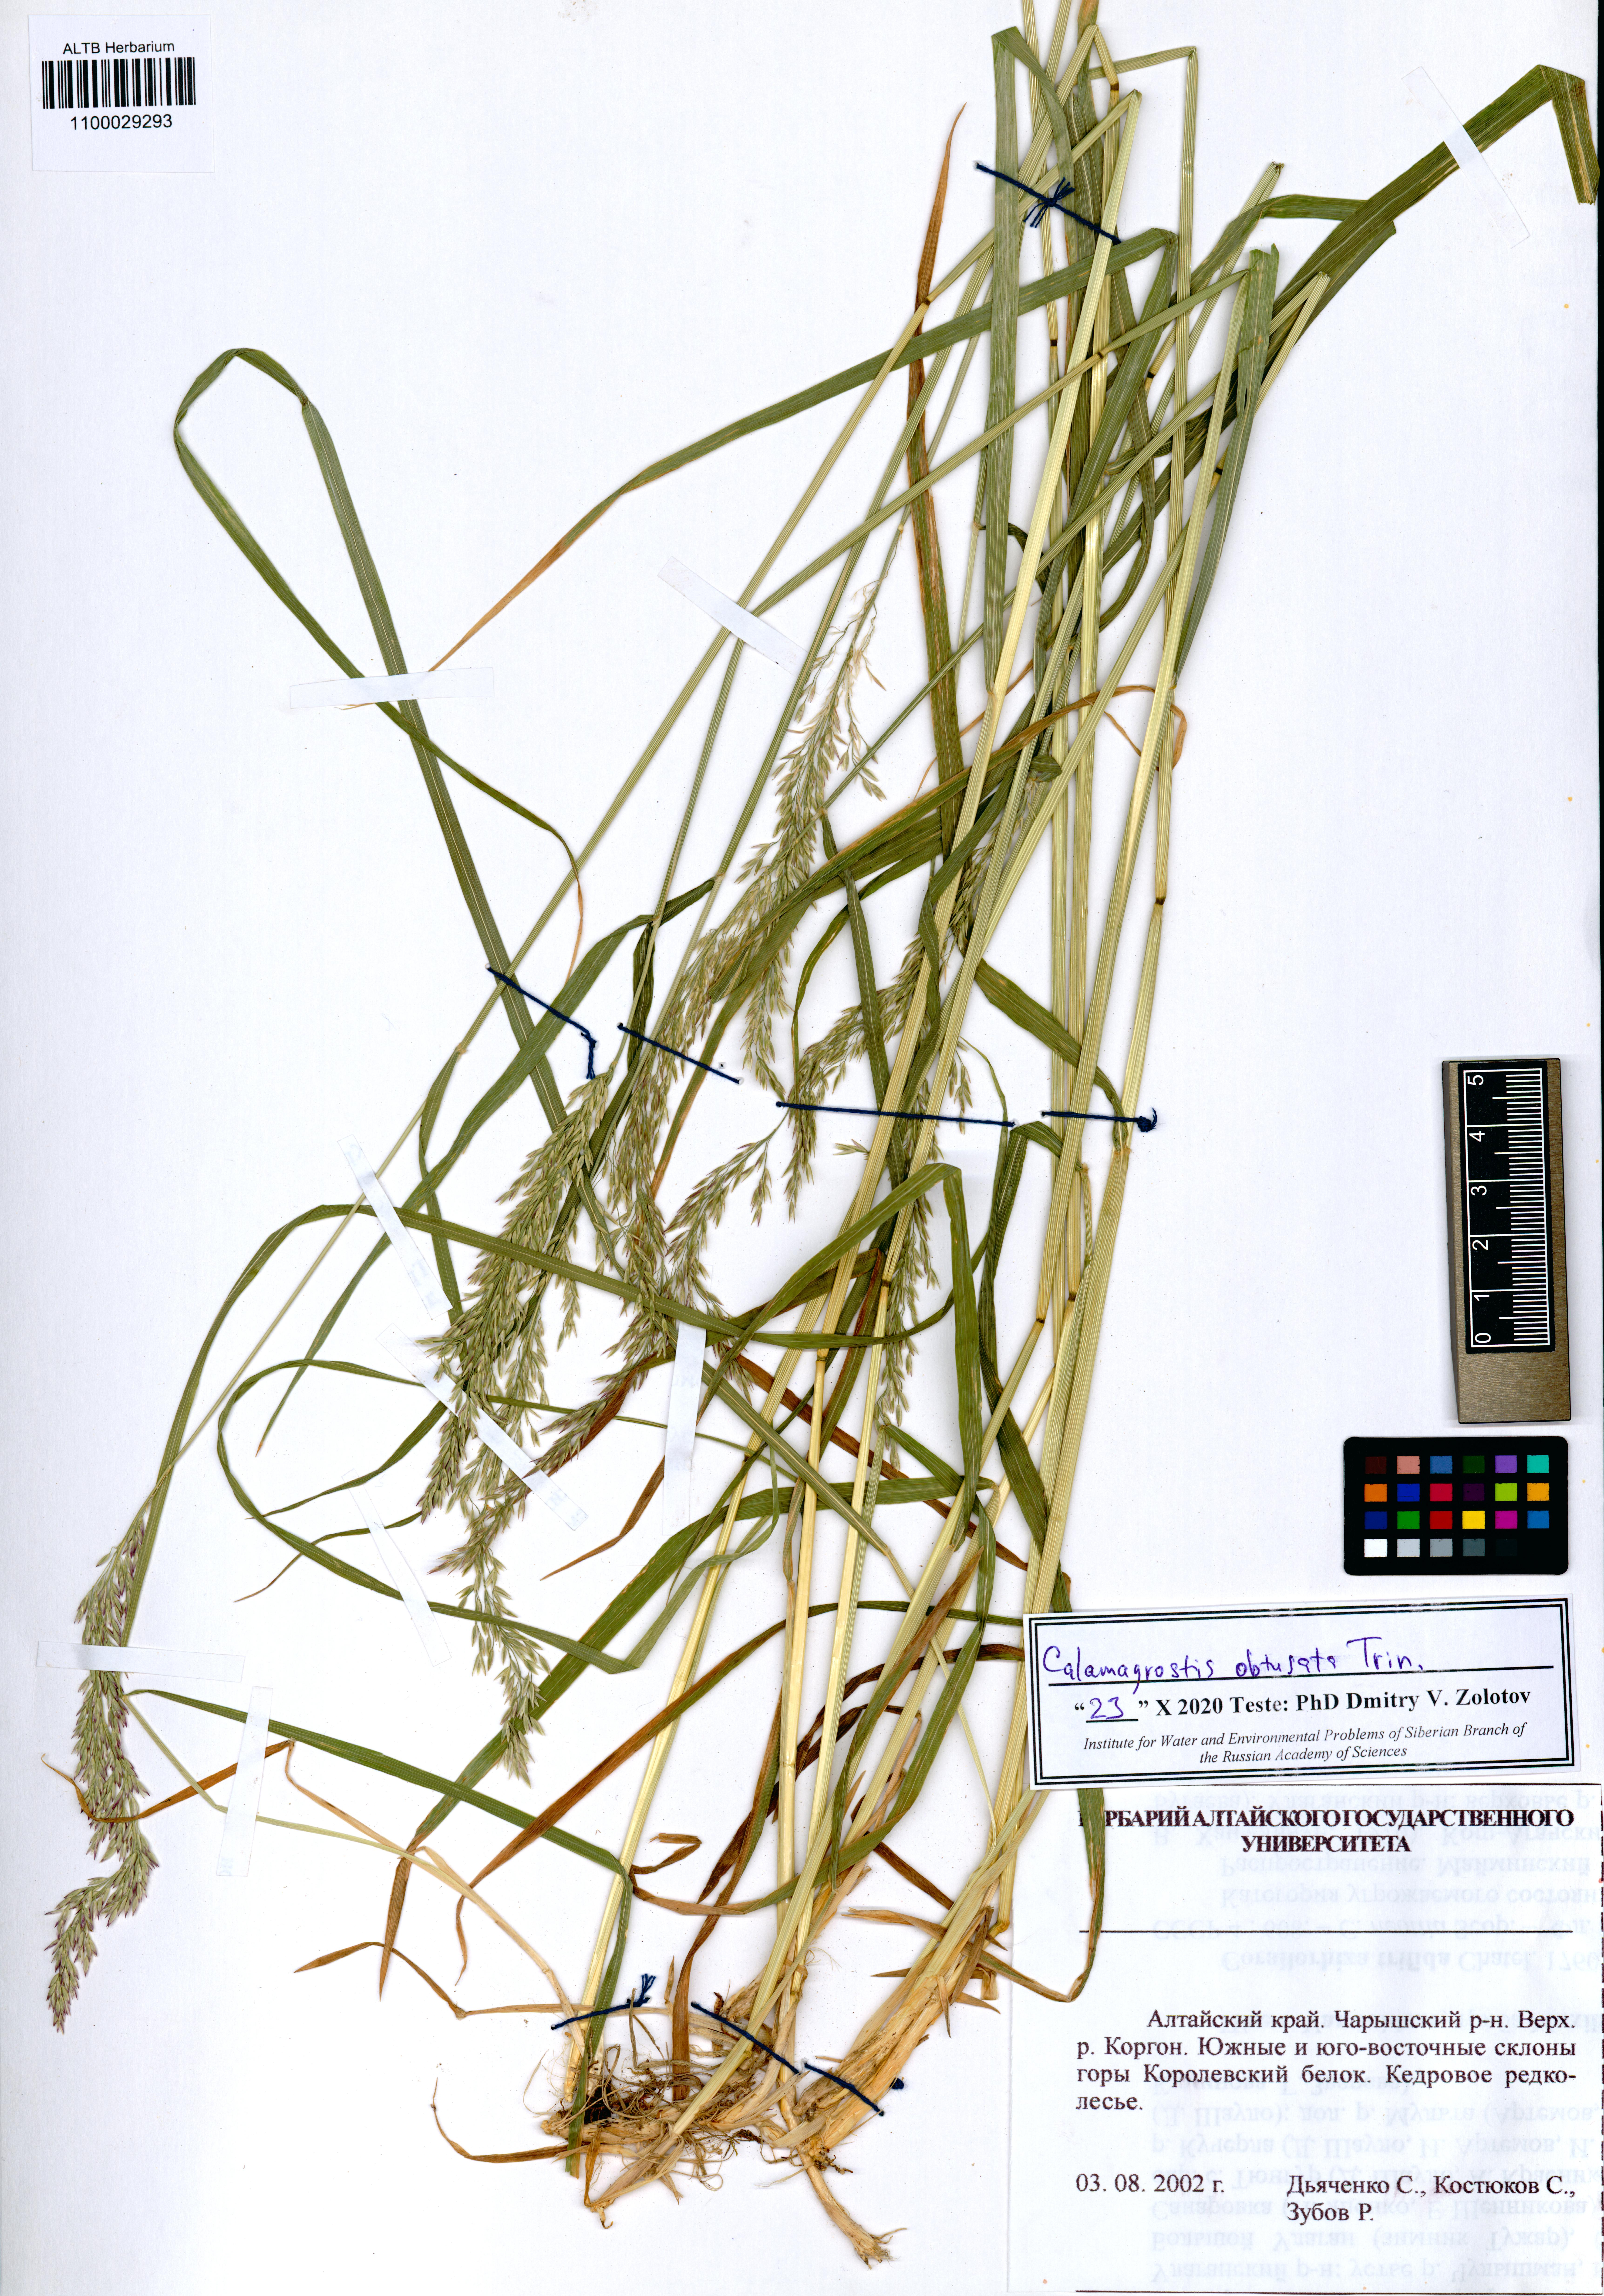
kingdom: Plantae
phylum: Tracheophyta
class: Liliopsida
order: Poales
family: Poaceae
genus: Calamagrostis
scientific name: Calamagrostis obtusata
